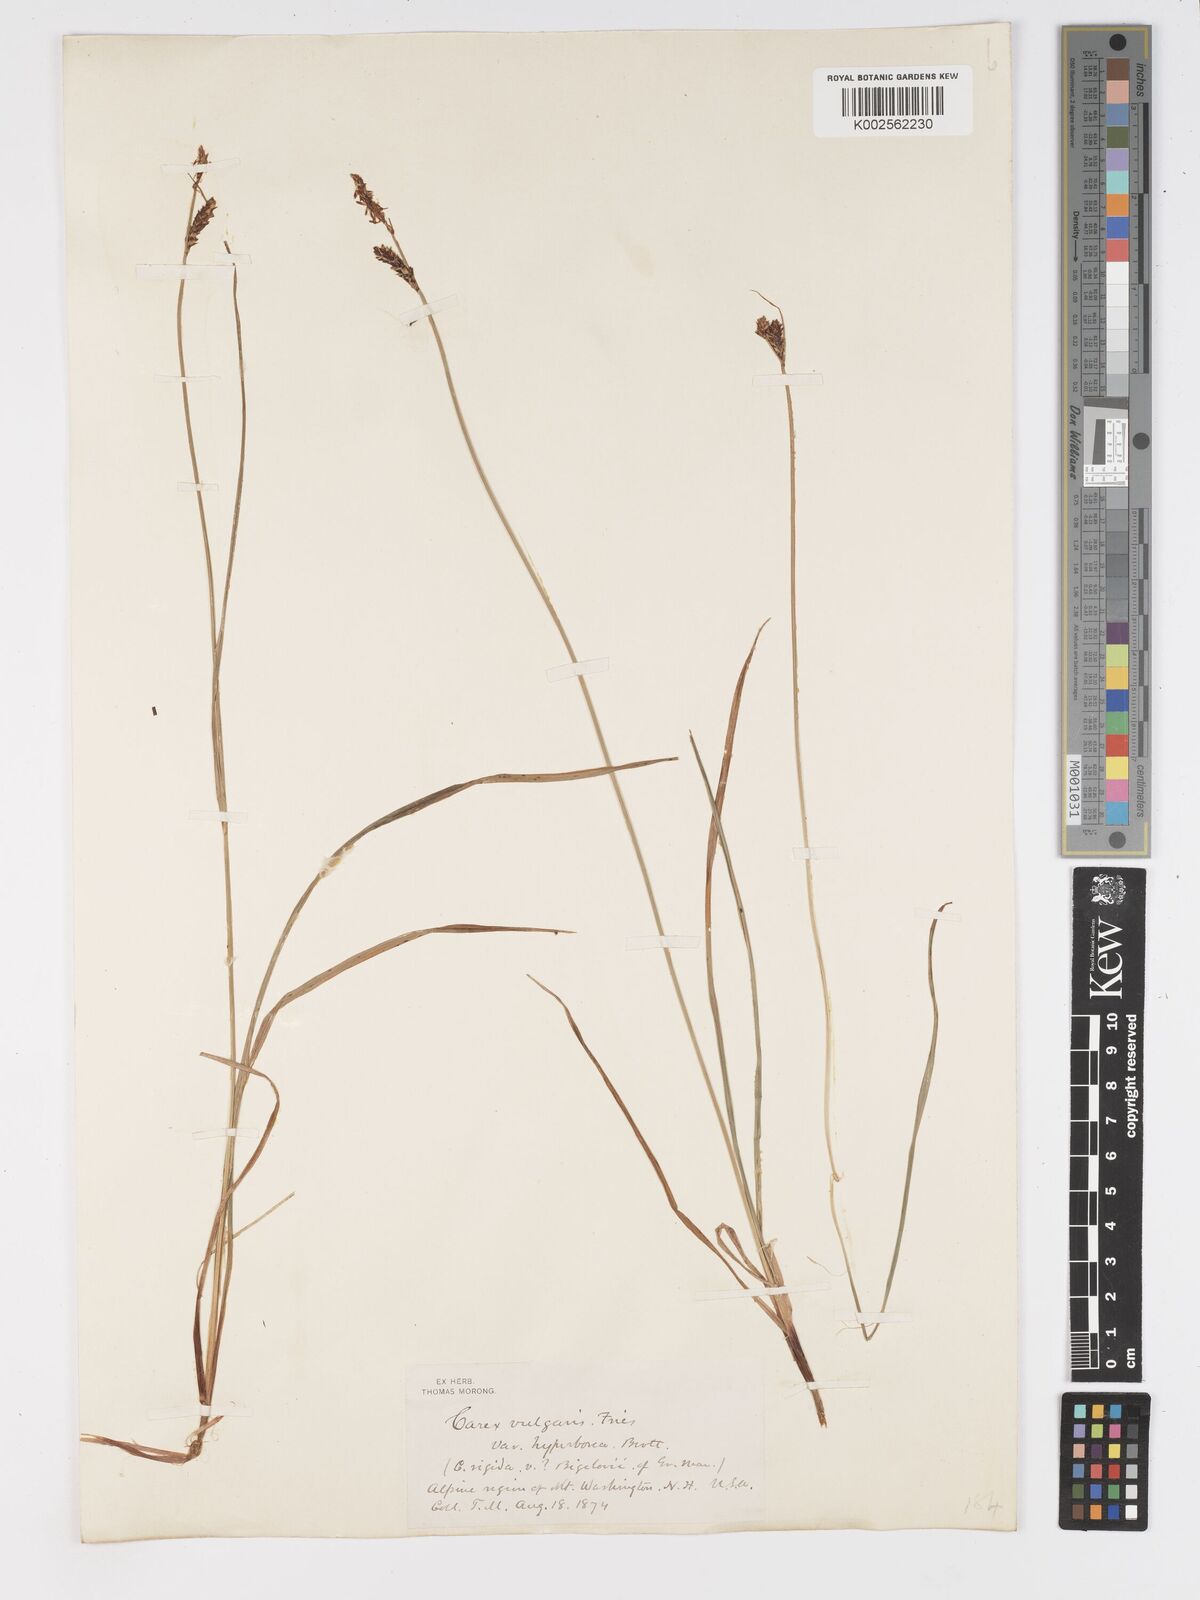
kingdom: Plantae
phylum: Tracheophyta
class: Liliopsida
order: Poales
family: Cyperaceae
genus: Carex
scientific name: Carex nigra
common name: Common sedge
